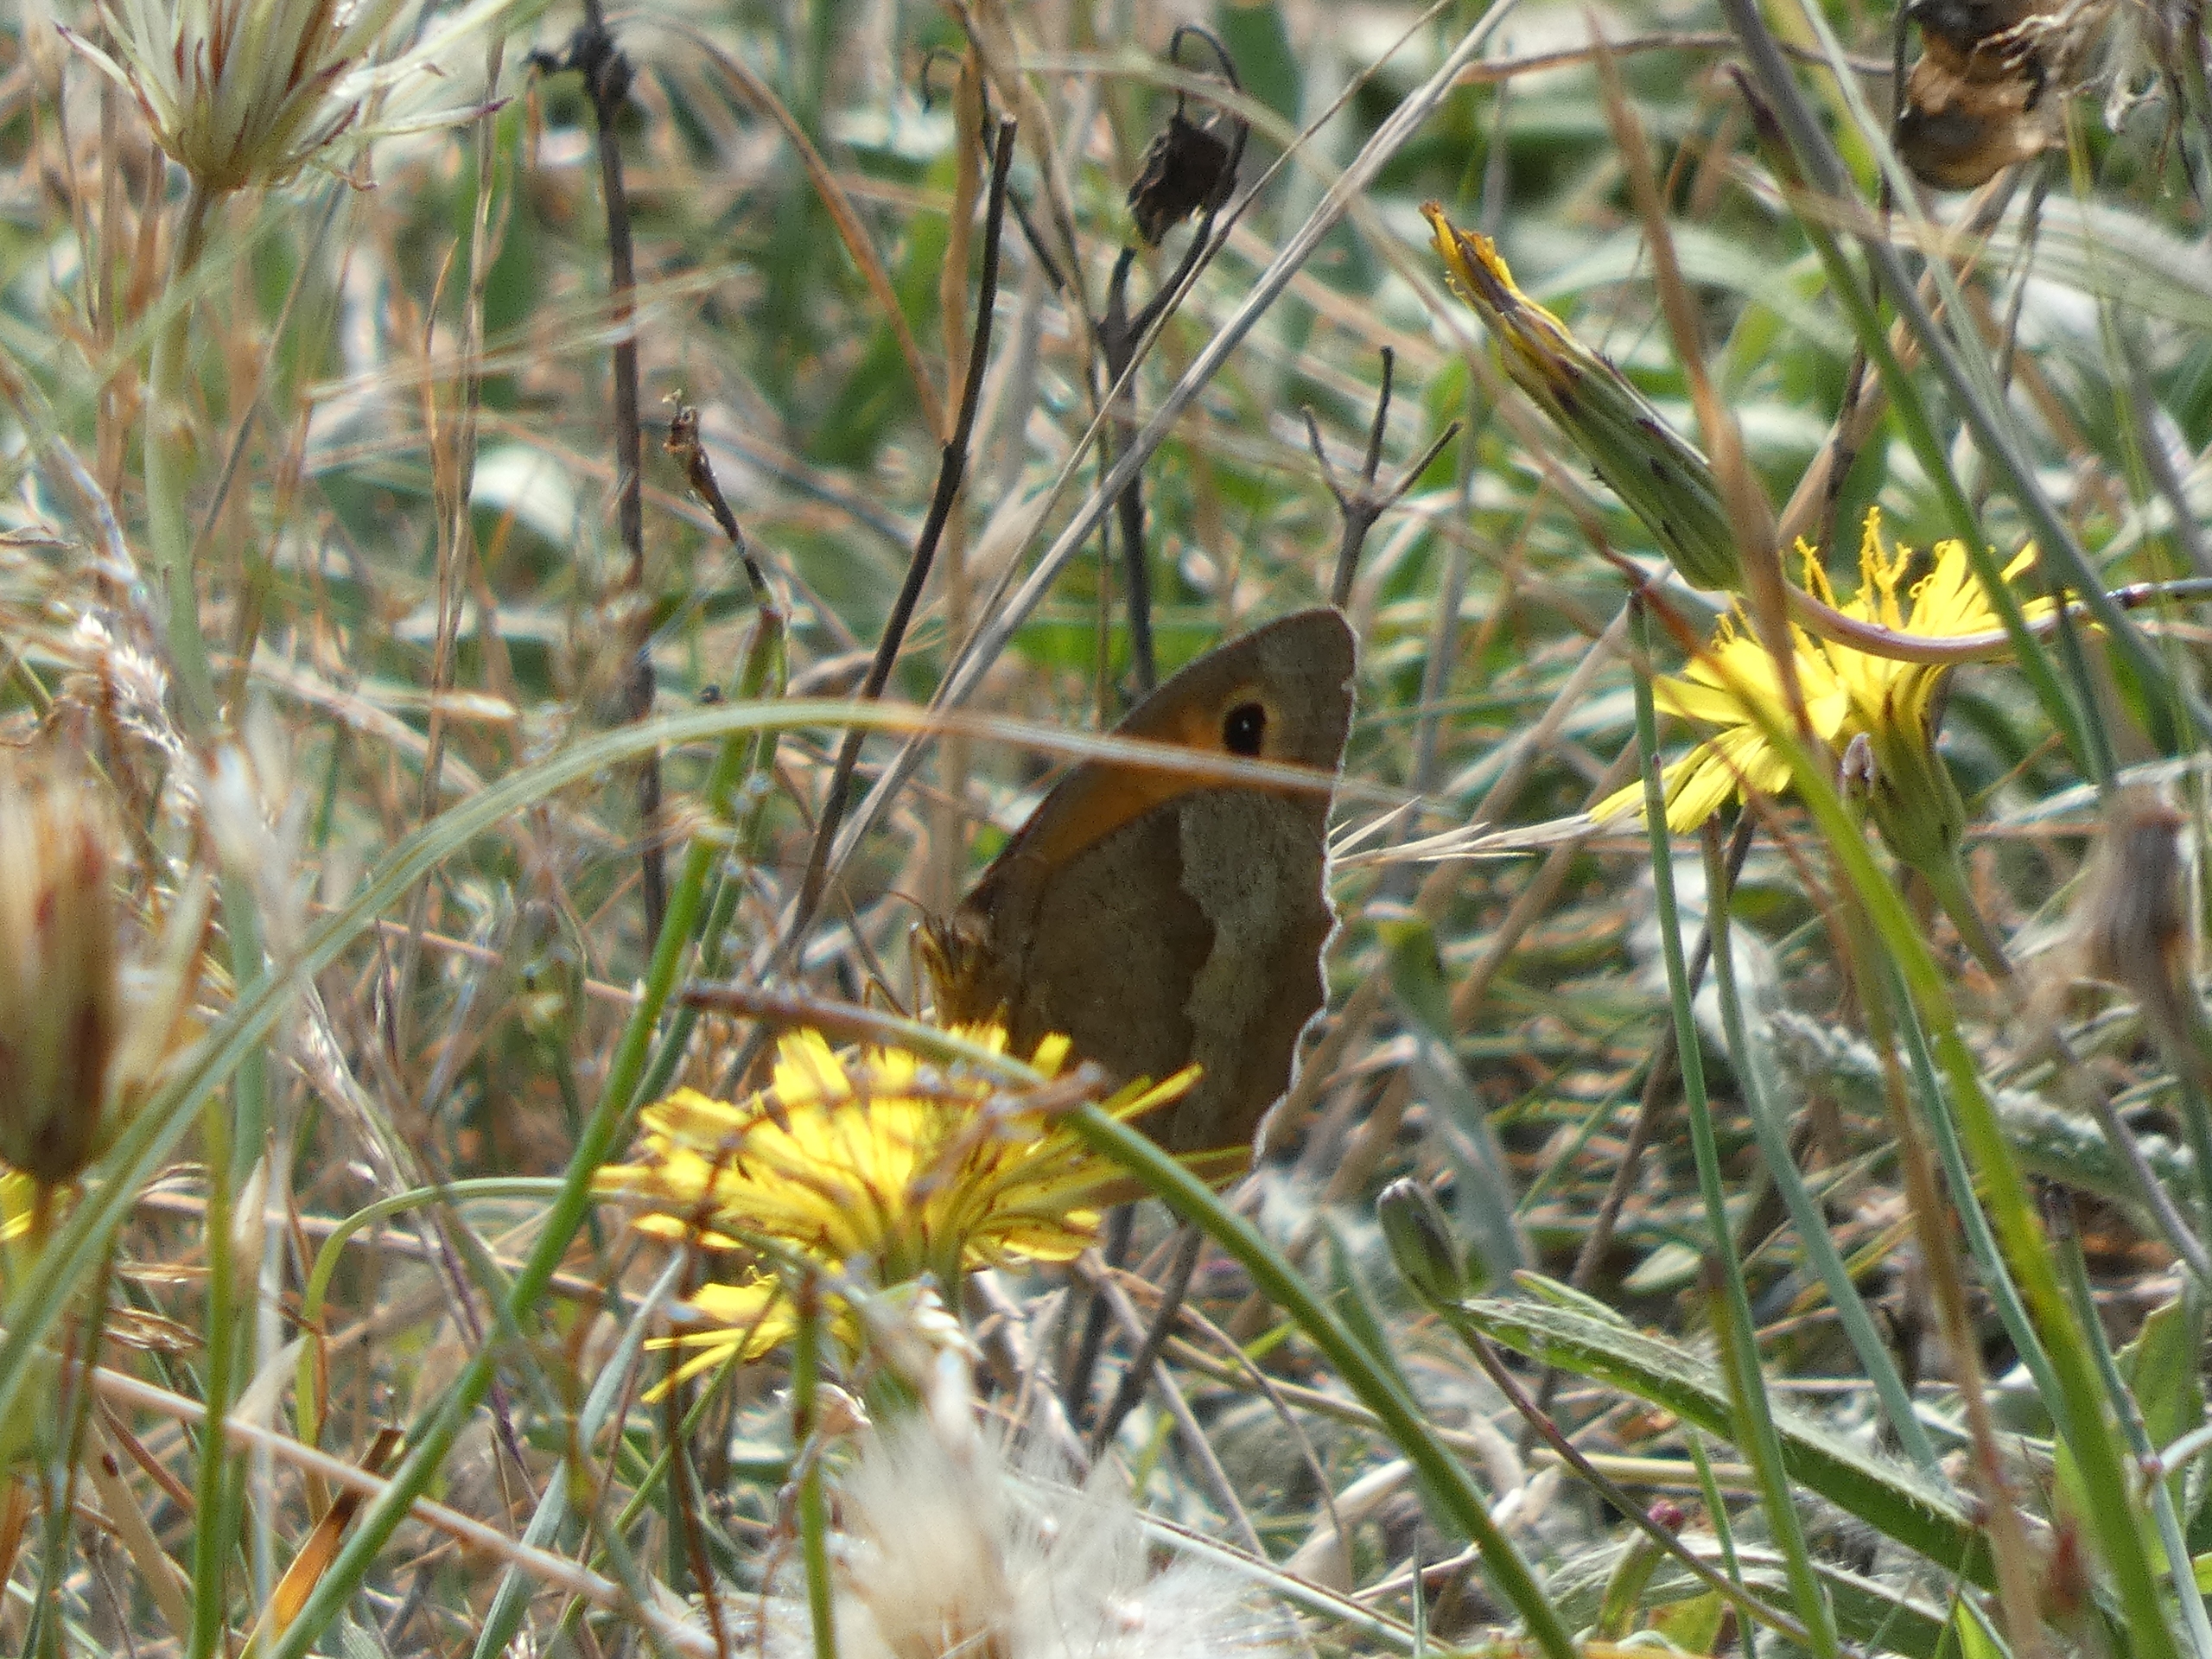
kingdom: Animalia
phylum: Arthropoda
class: Insecta
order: Lepidoptera
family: Nymphalidae
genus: Maniola
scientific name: Maniola jurtina
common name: Græsrandøje
